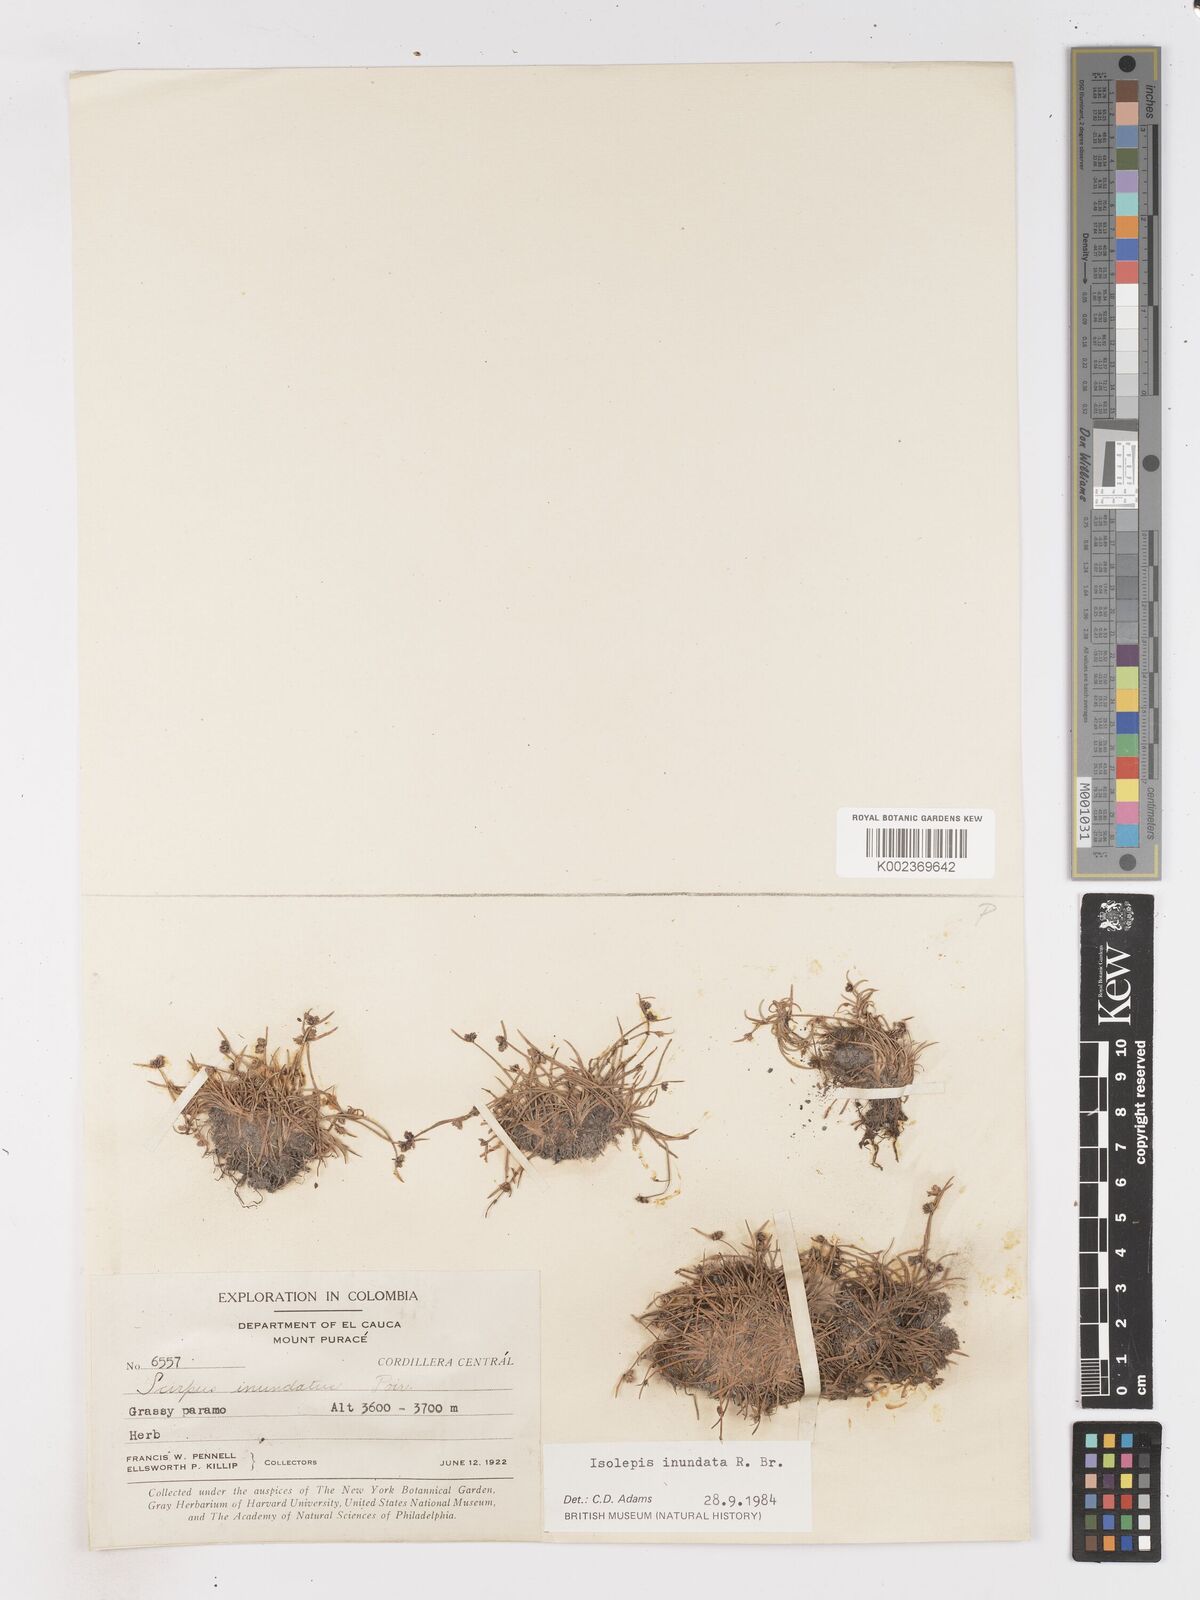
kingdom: Plantae
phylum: Tracheophyta
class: Liliopsida
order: Poales
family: Cyperaceae
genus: Isolepis
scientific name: Isolepis inundata
